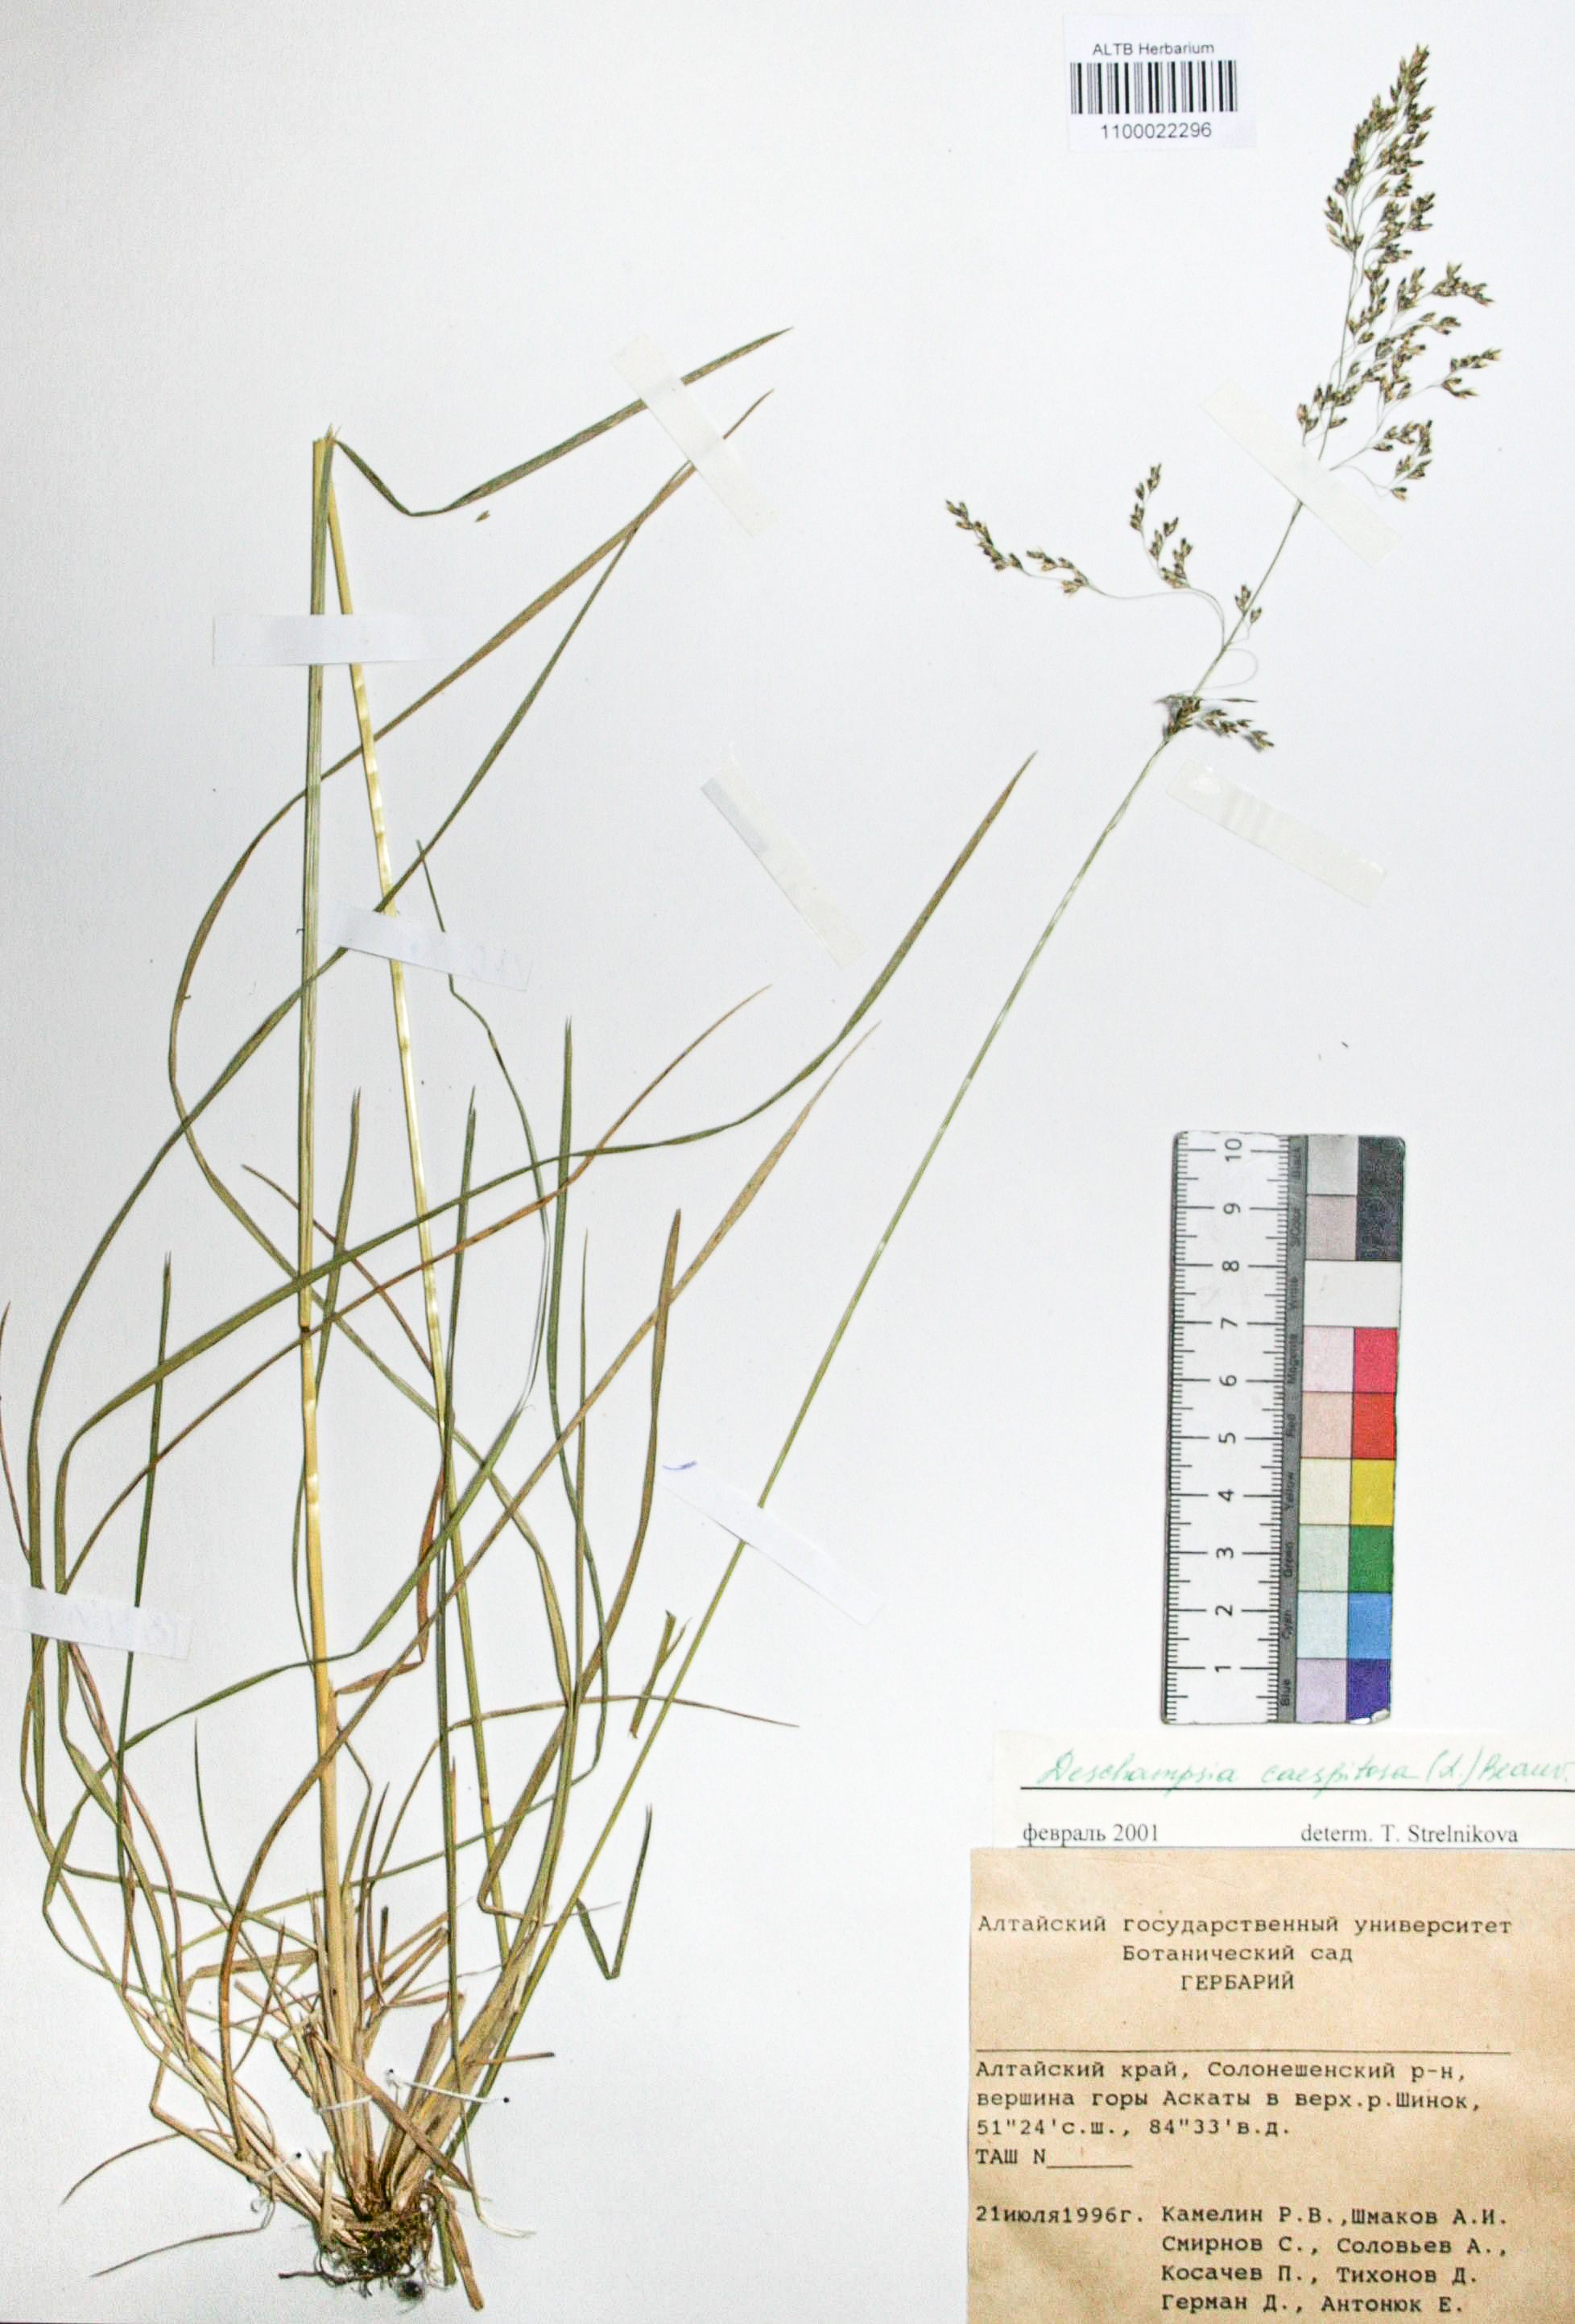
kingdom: Plantae
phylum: Tracheophyta
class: Liliopsida
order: Poales
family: Poaceae
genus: Deschampsia
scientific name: Deschampsia cespitosa
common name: Tufted hair-grass
